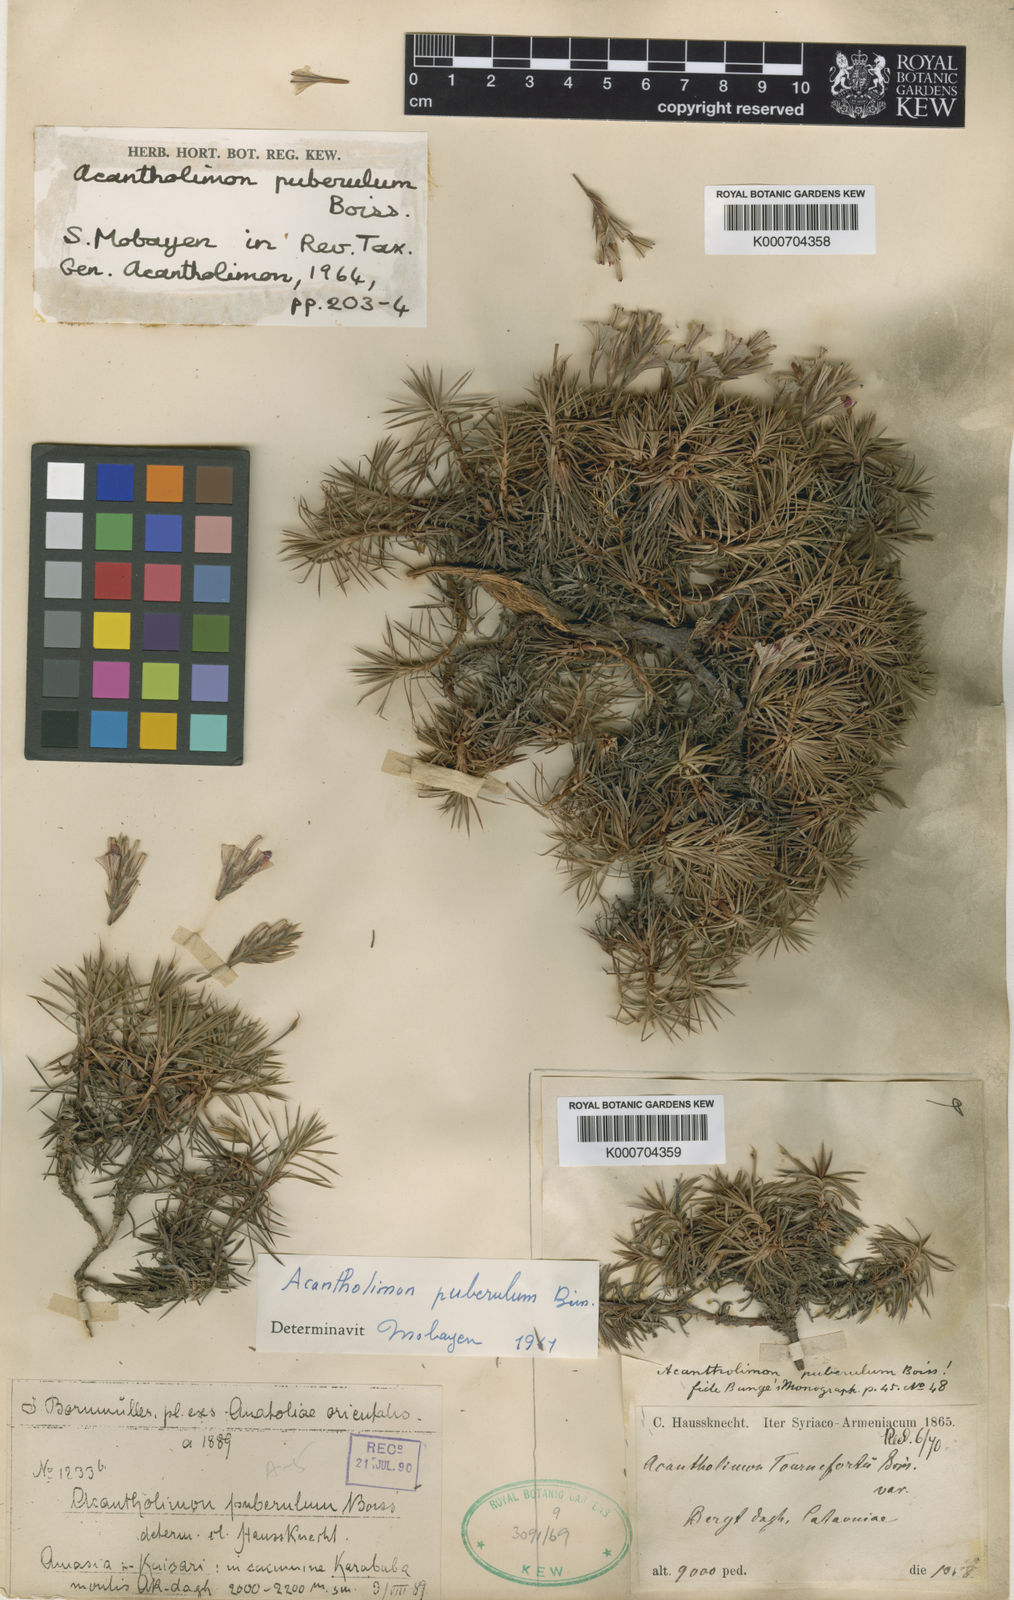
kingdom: Plantae
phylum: Tracheophyta
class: Magnoliopsida
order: Caryophyllales
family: Plumbaginaceae
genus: Acantholimon
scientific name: Acantholimon puberulum
